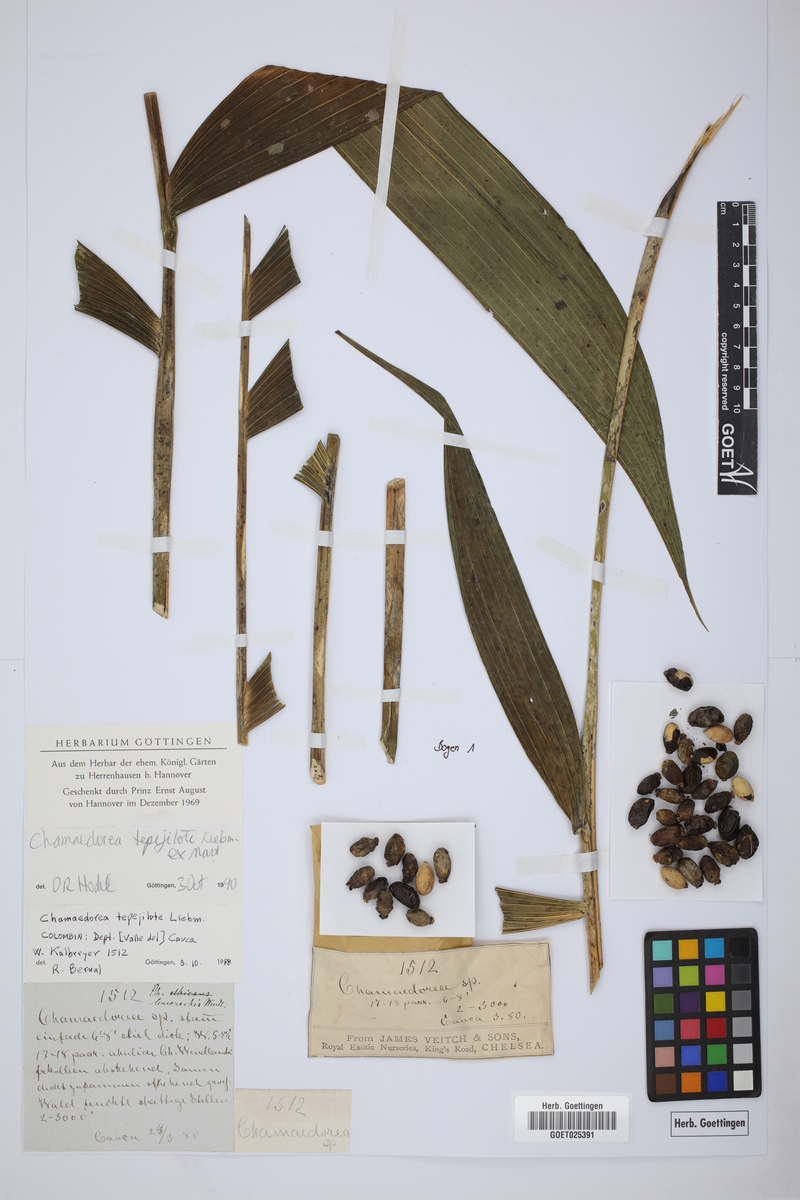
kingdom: Plantae
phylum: Tracheophyta
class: Liliopsida
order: Arecales
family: Arecaceae
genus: Chamaedorea
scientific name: Chamaedorea tepejilote
